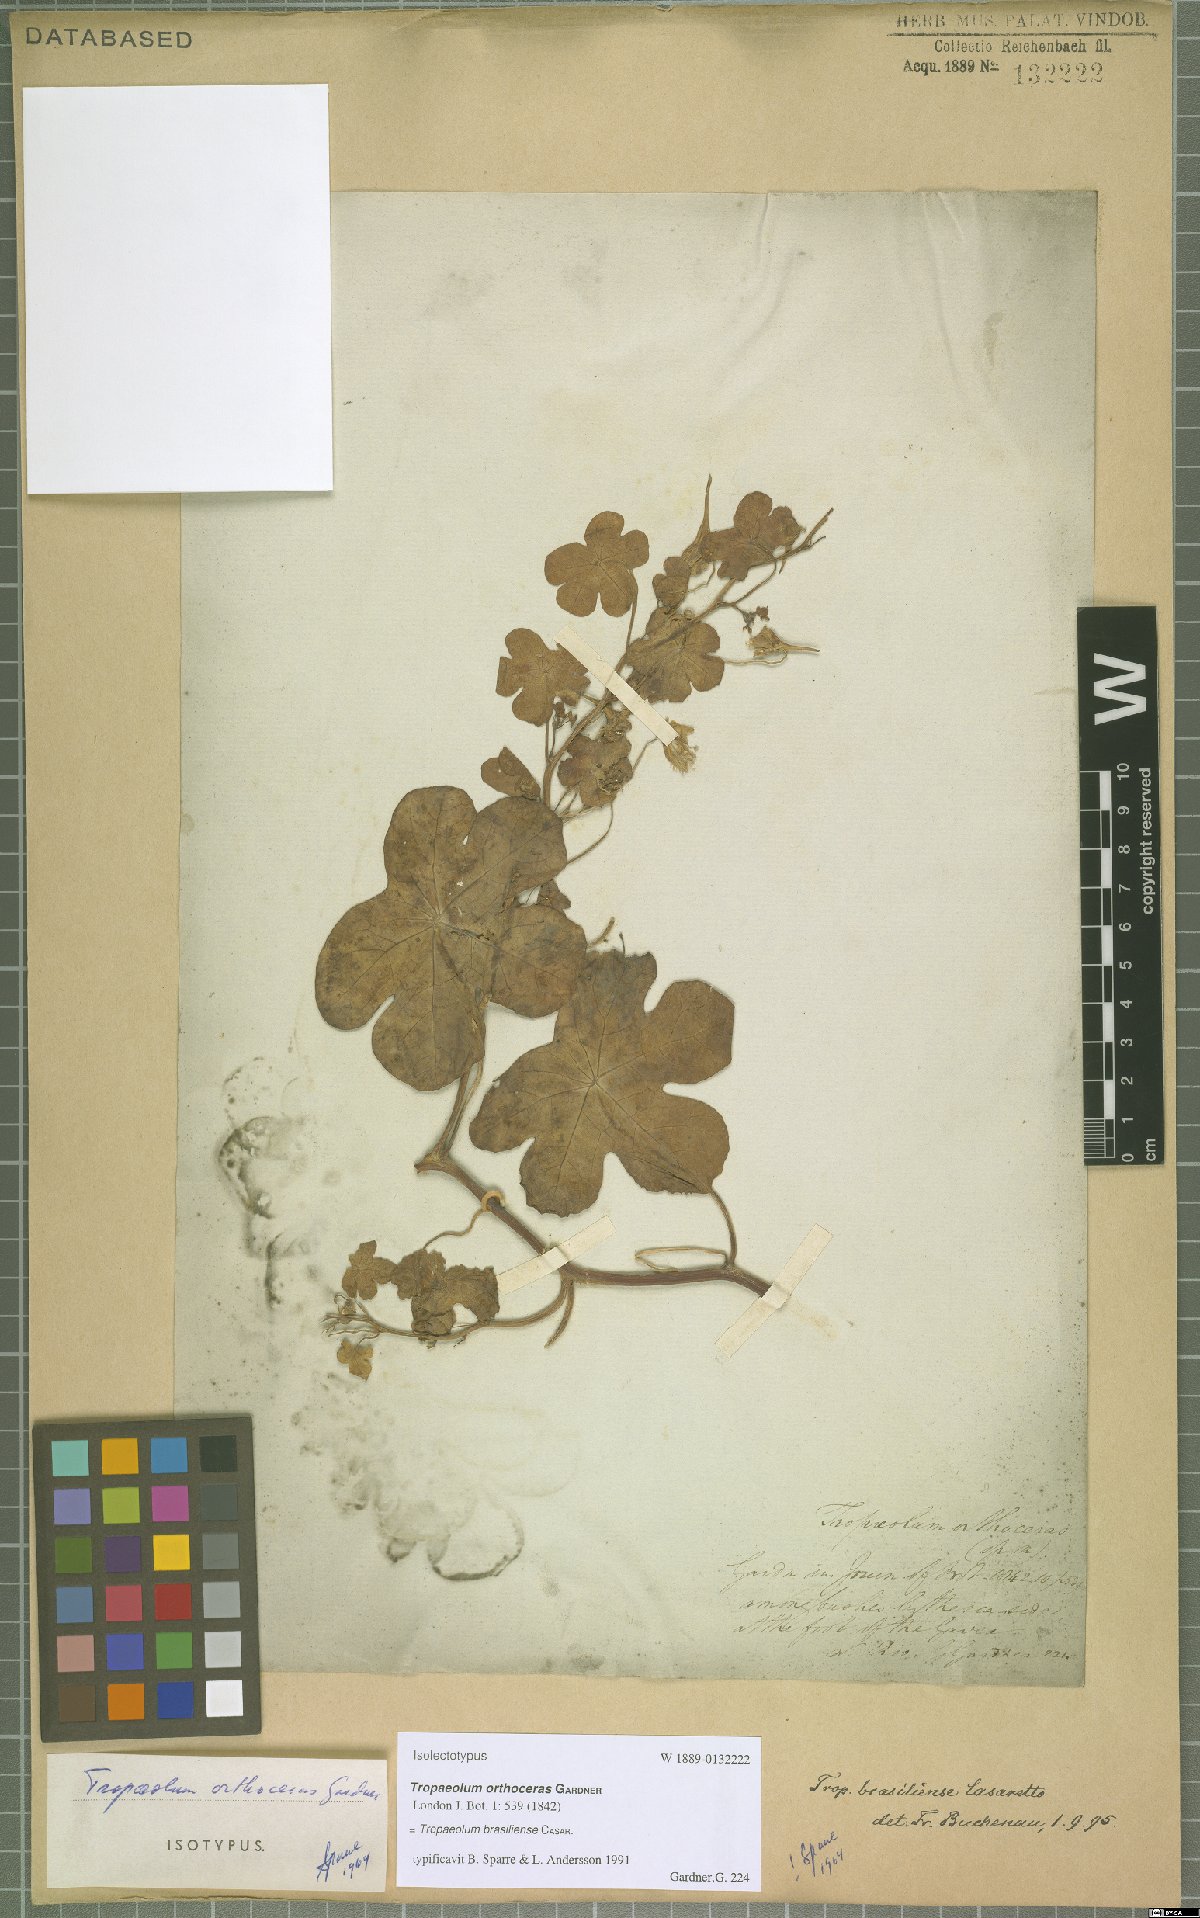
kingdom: Plantae
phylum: Tracheophyta
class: Magnoliopsida
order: Brassicales
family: Tropaeolaceae
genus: Tropaeolum
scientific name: Tropaeolum brasiliense
